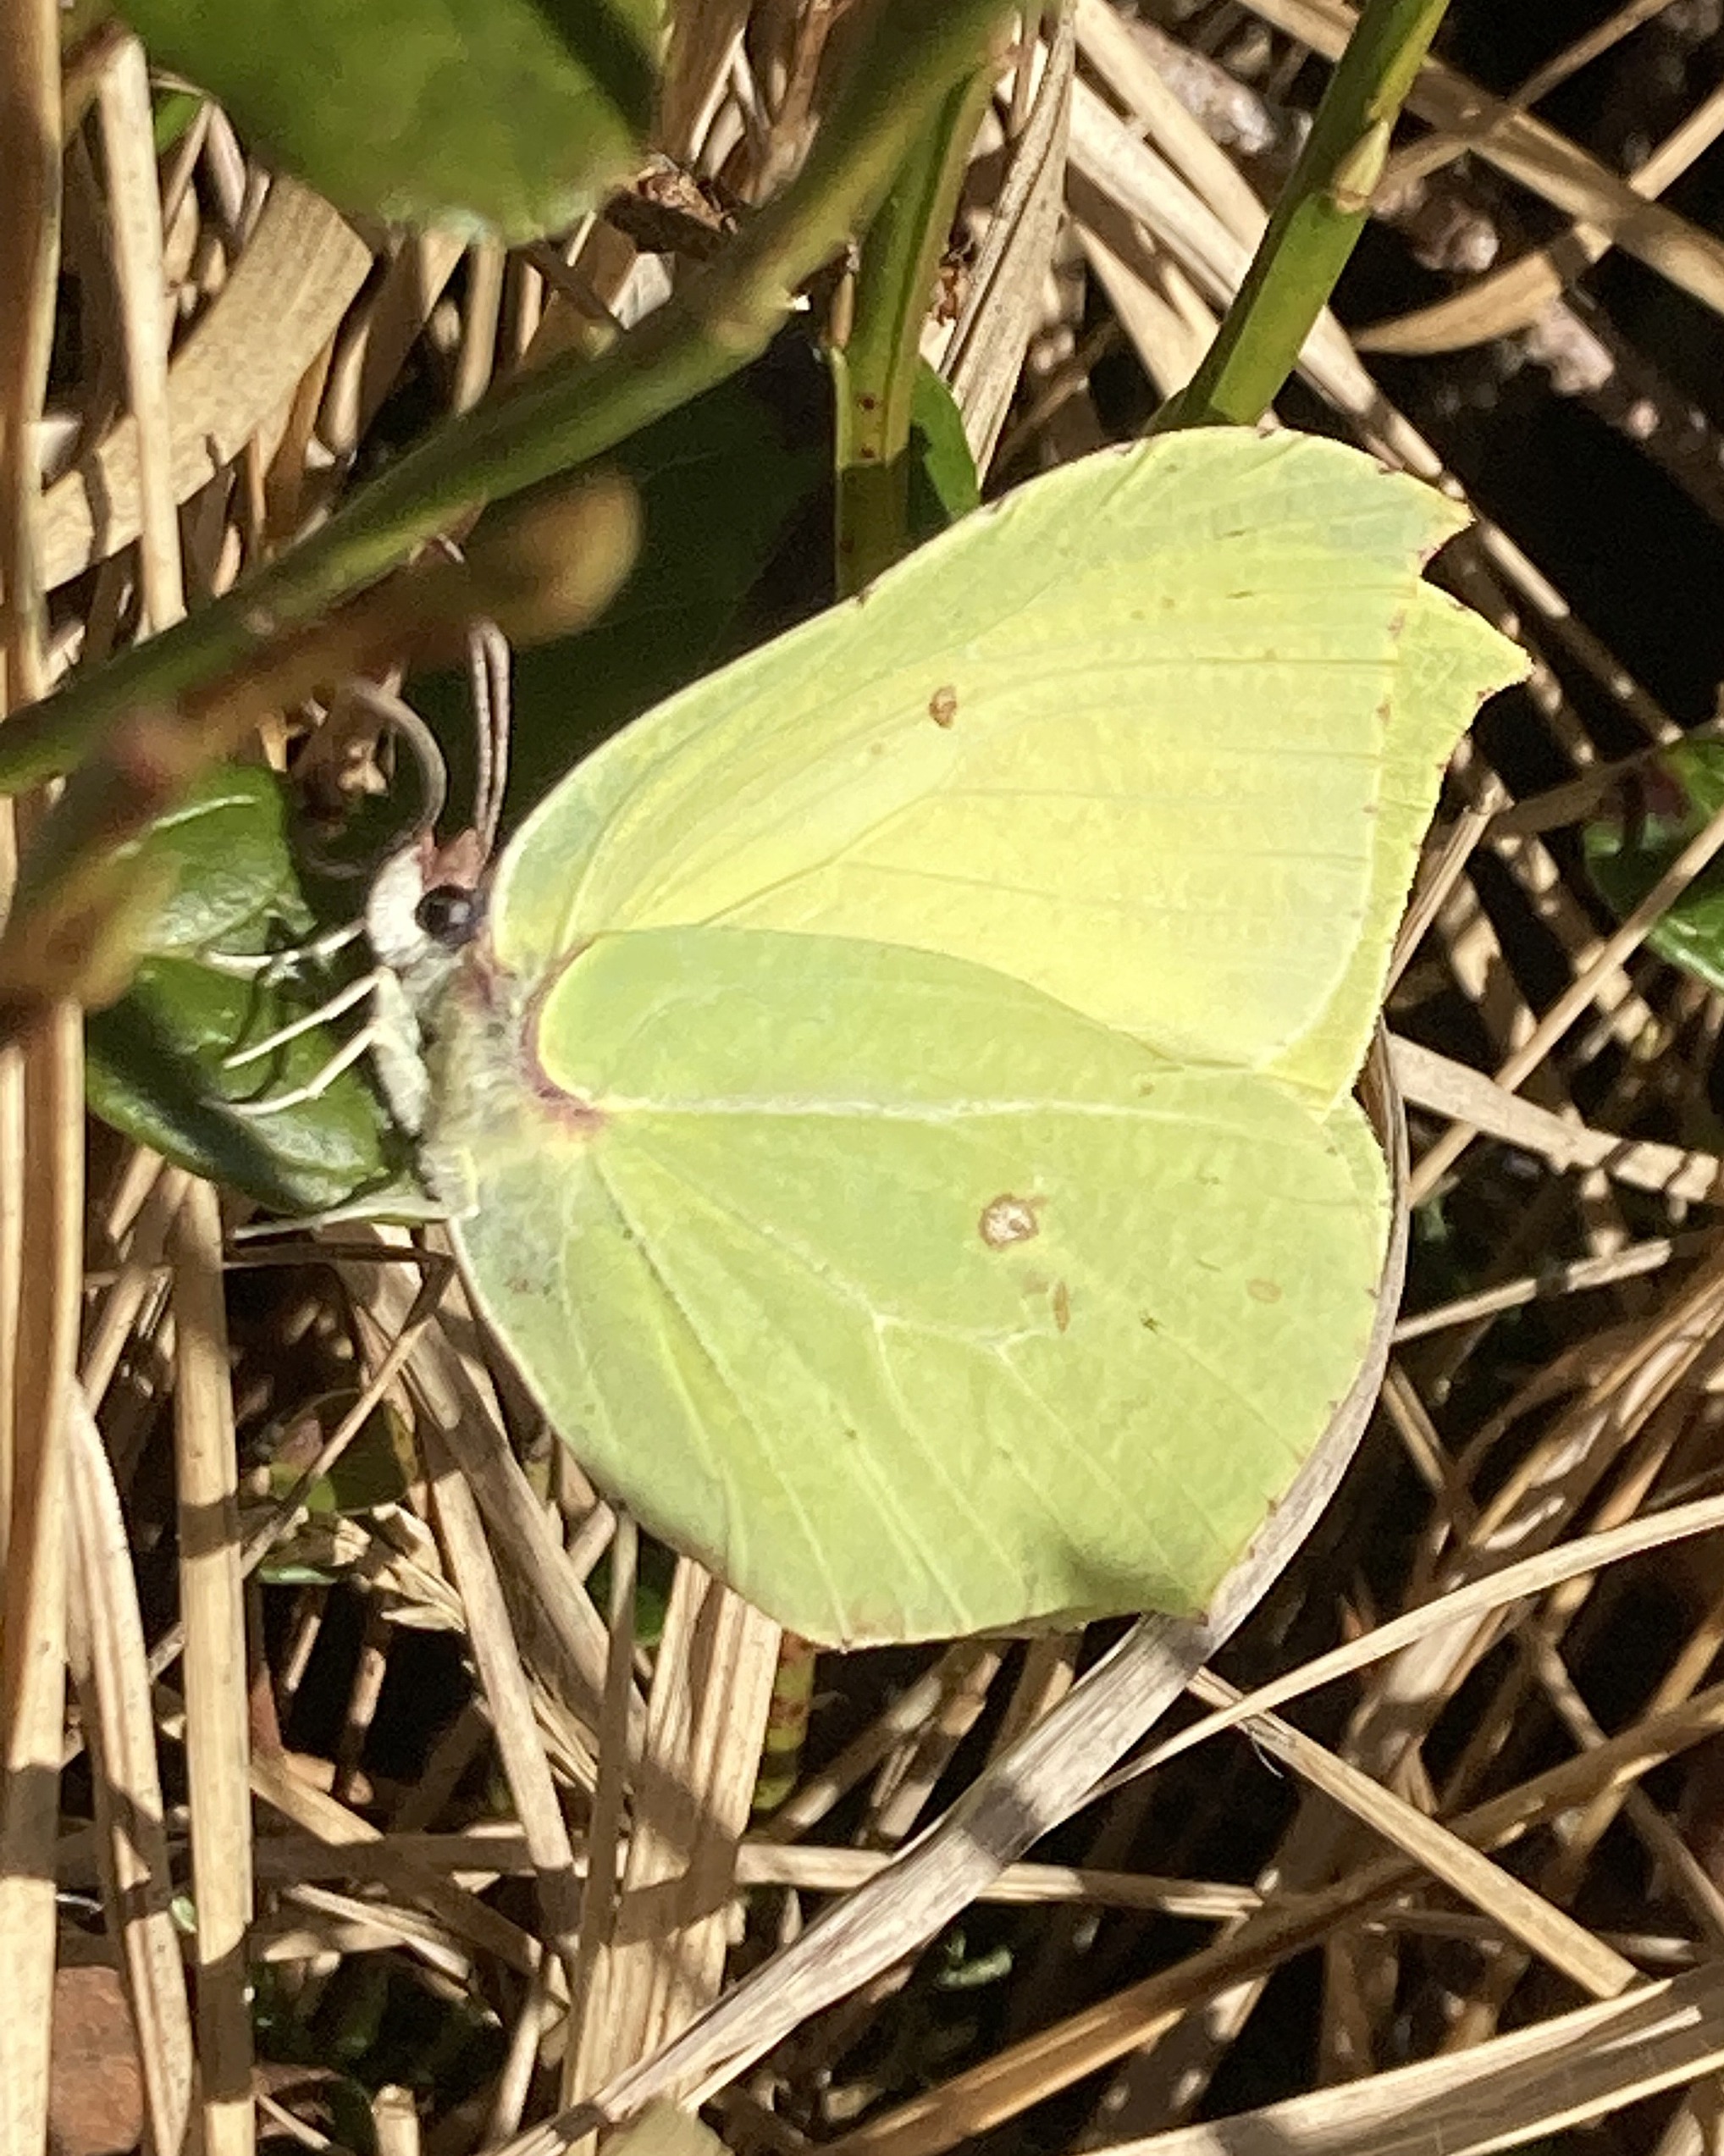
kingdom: Animalia
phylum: Arthropoda
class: Insecta
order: Lepidoptera
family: Pieridae
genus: Gonepteryx
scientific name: Gonepteryx rhamni
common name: Citronsommerfugl
